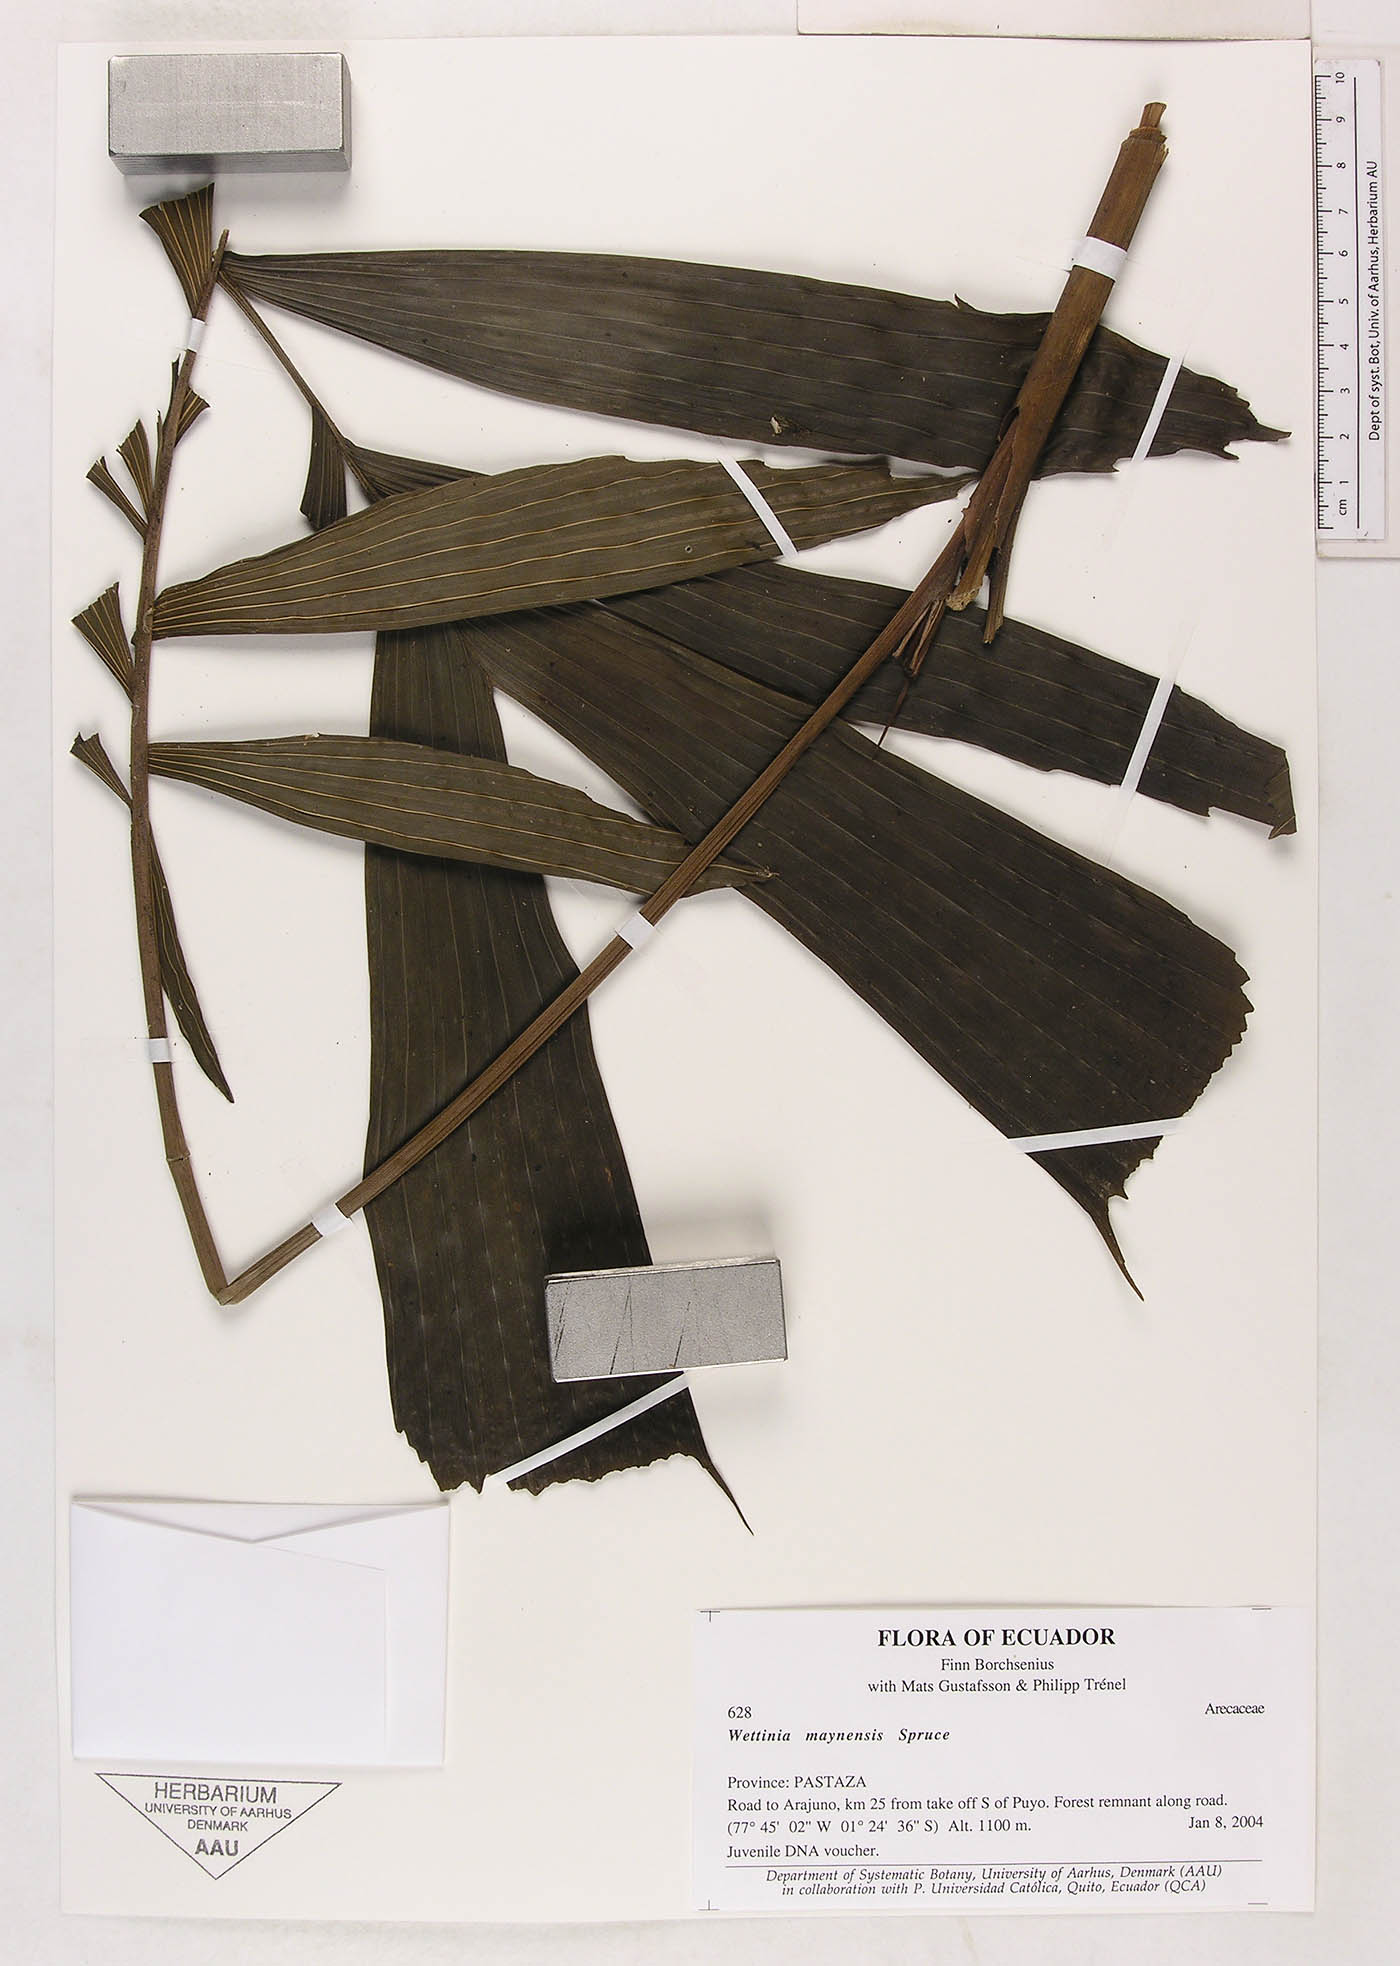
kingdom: Plantae
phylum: Tracheophyta
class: Liliopsida
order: Arecales
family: Arecaceae
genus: Wettinia
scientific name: Wettinia maynensis
